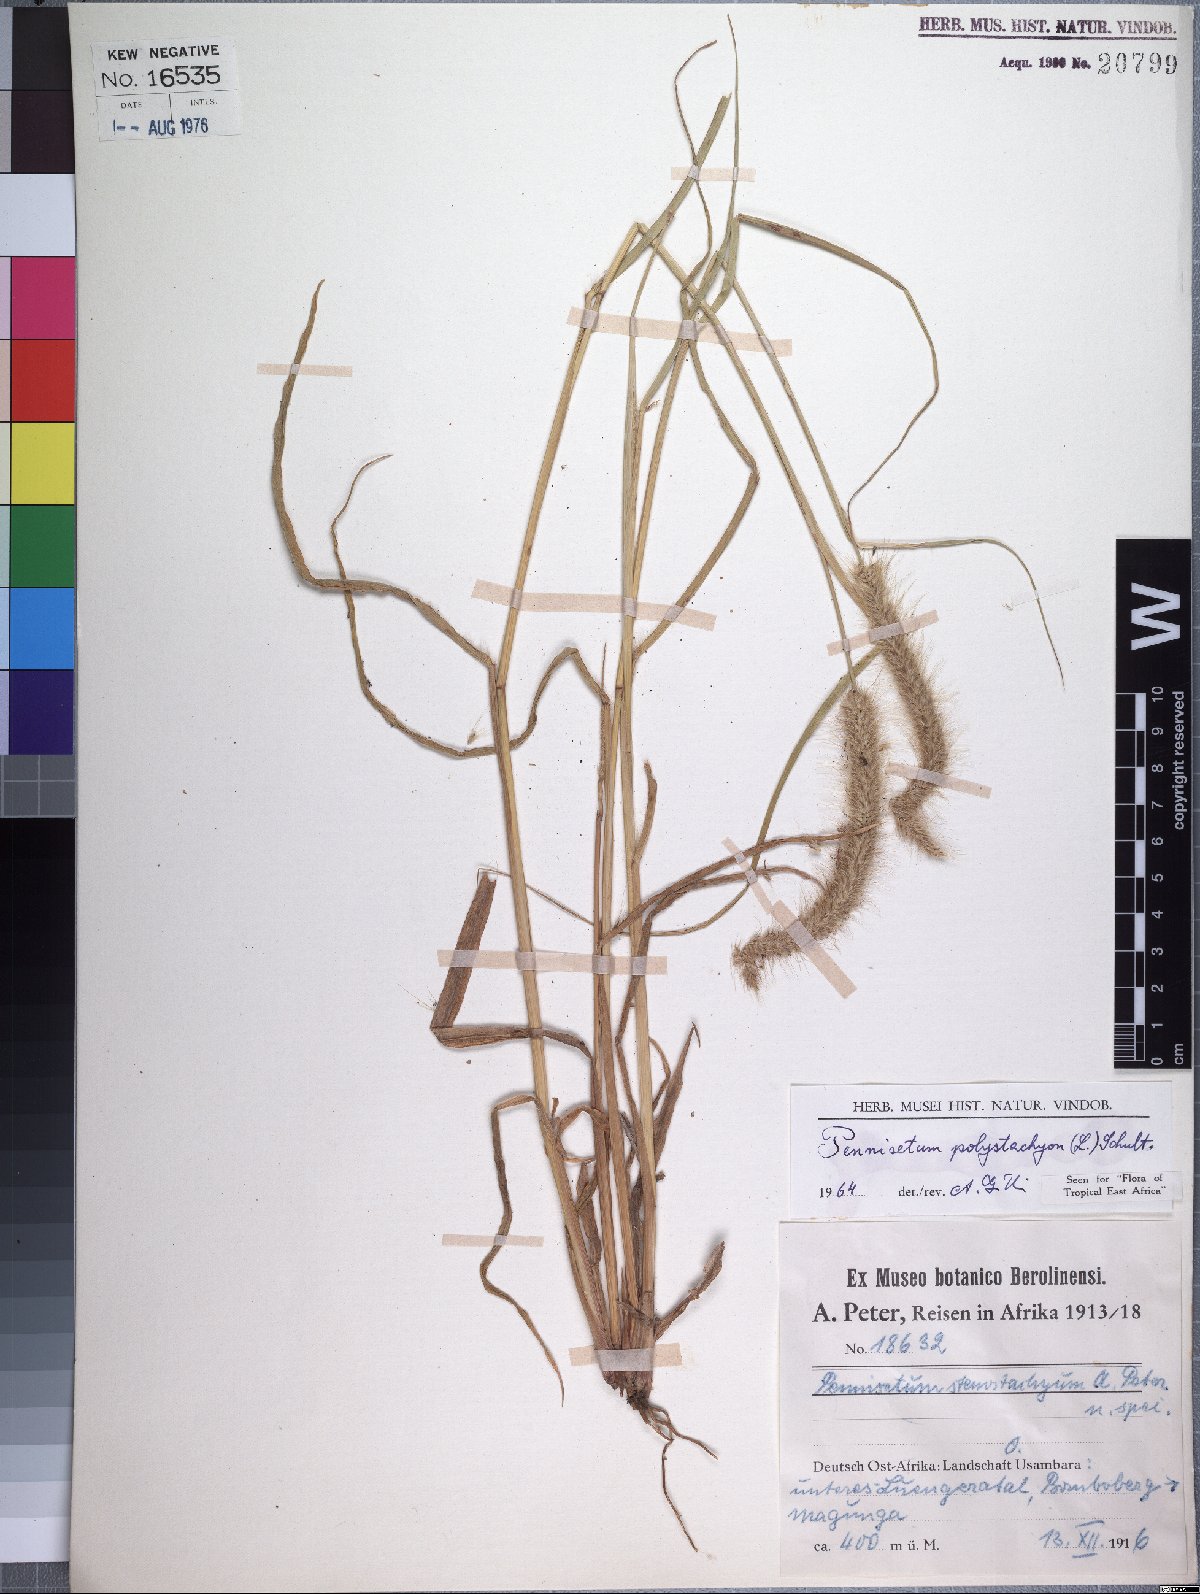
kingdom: Plantae
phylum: Tracheophyta
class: Liliopsida
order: Poales
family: Poaceae
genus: Setaria
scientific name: Setaria parviflora
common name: Knotroot bristle-grass
